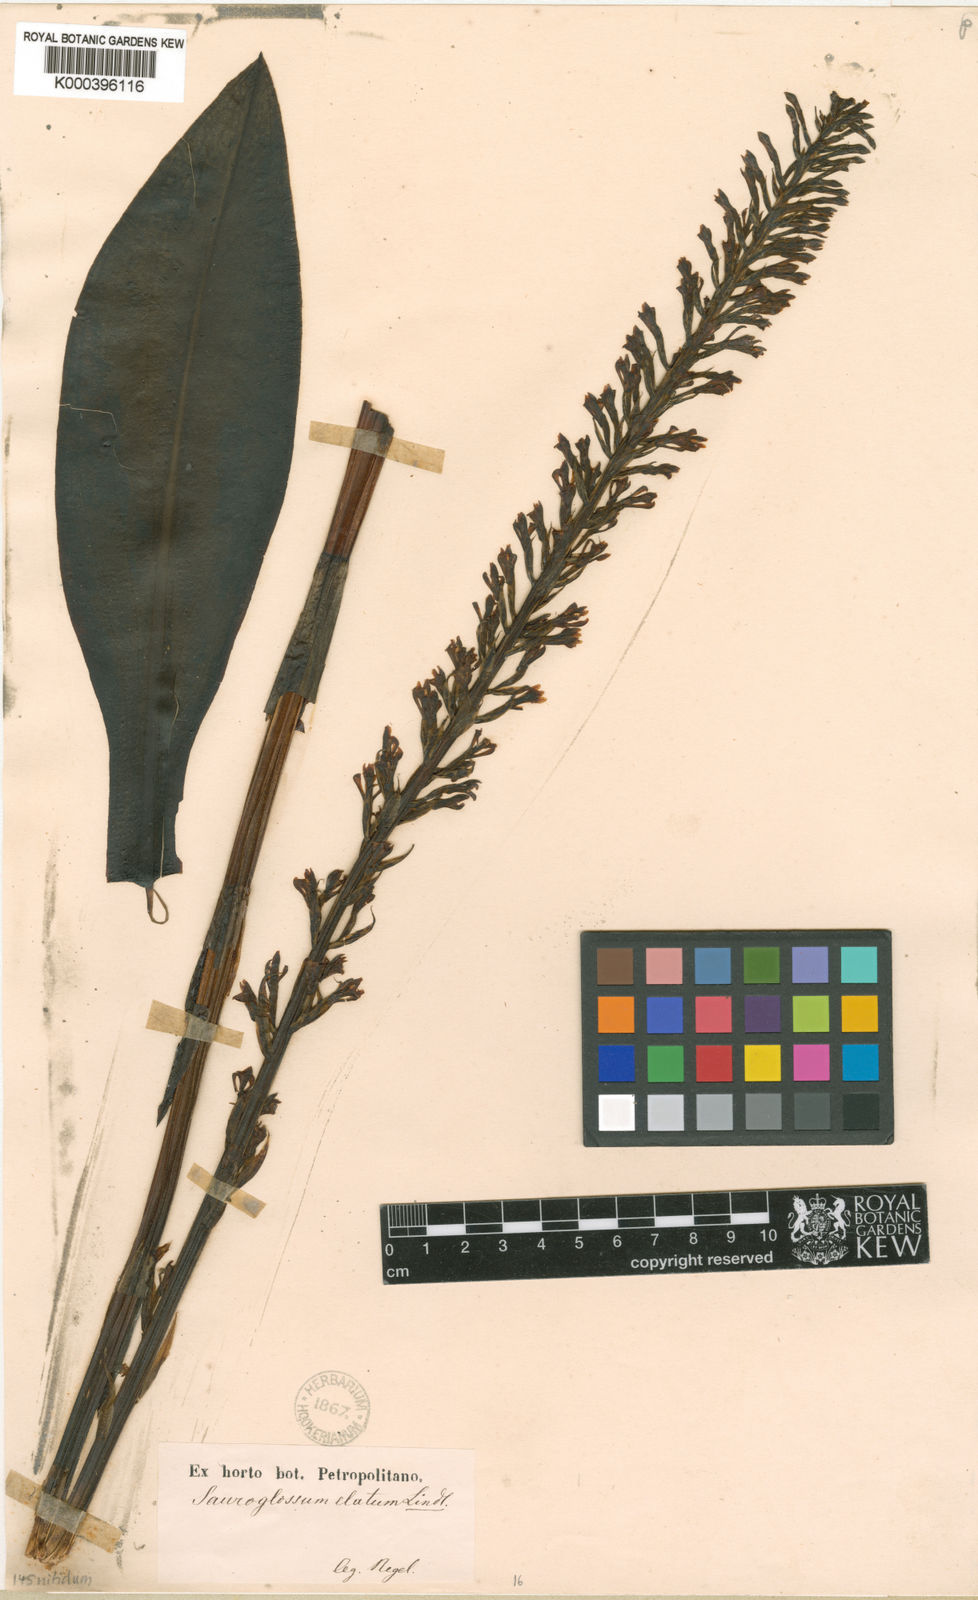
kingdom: Plantae
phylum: Tracheophyta
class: Liliopsida
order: Asparagales
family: Orchidaceae
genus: Sauroglossum
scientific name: Sauroglossum elatum
